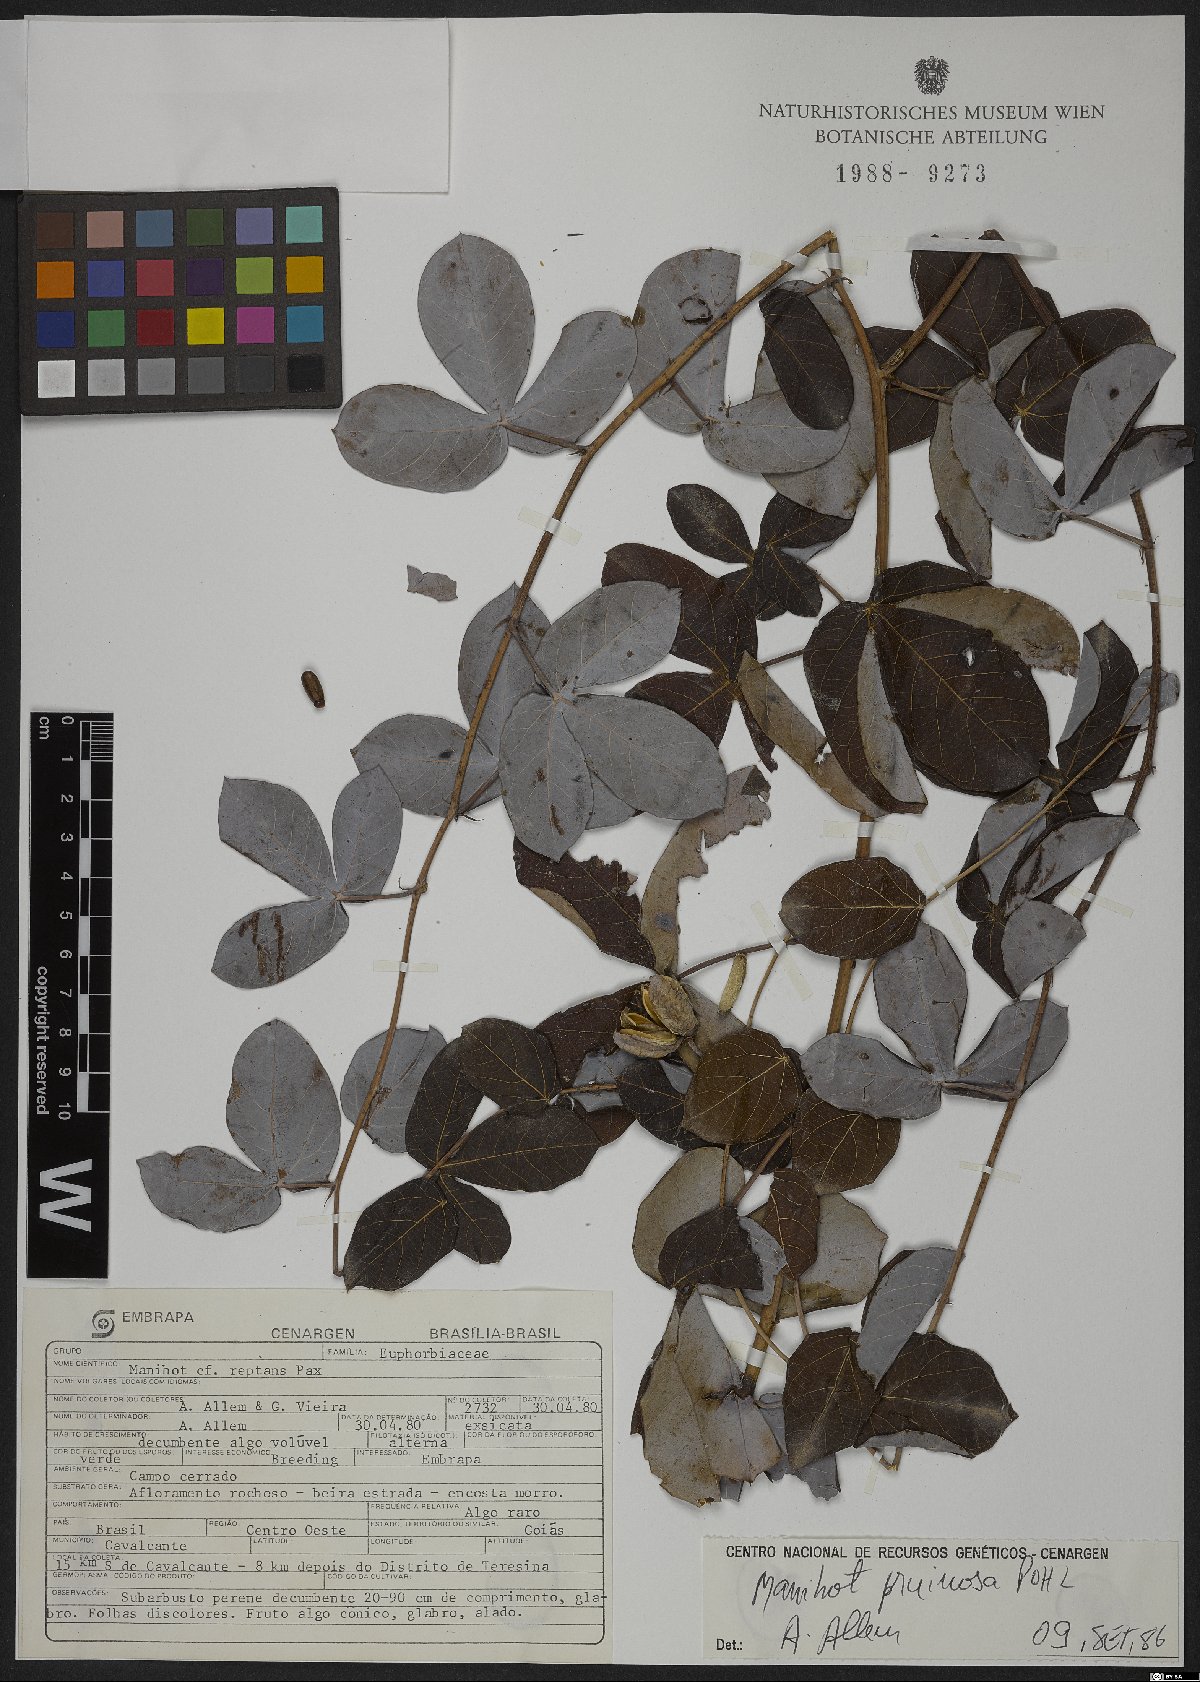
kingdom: Plantae
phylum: Tracheophyta
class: Magnoliopsida
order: Malpighiales
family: Euphorbiaceae
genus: Manihot
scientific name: Manihot pruinosa
